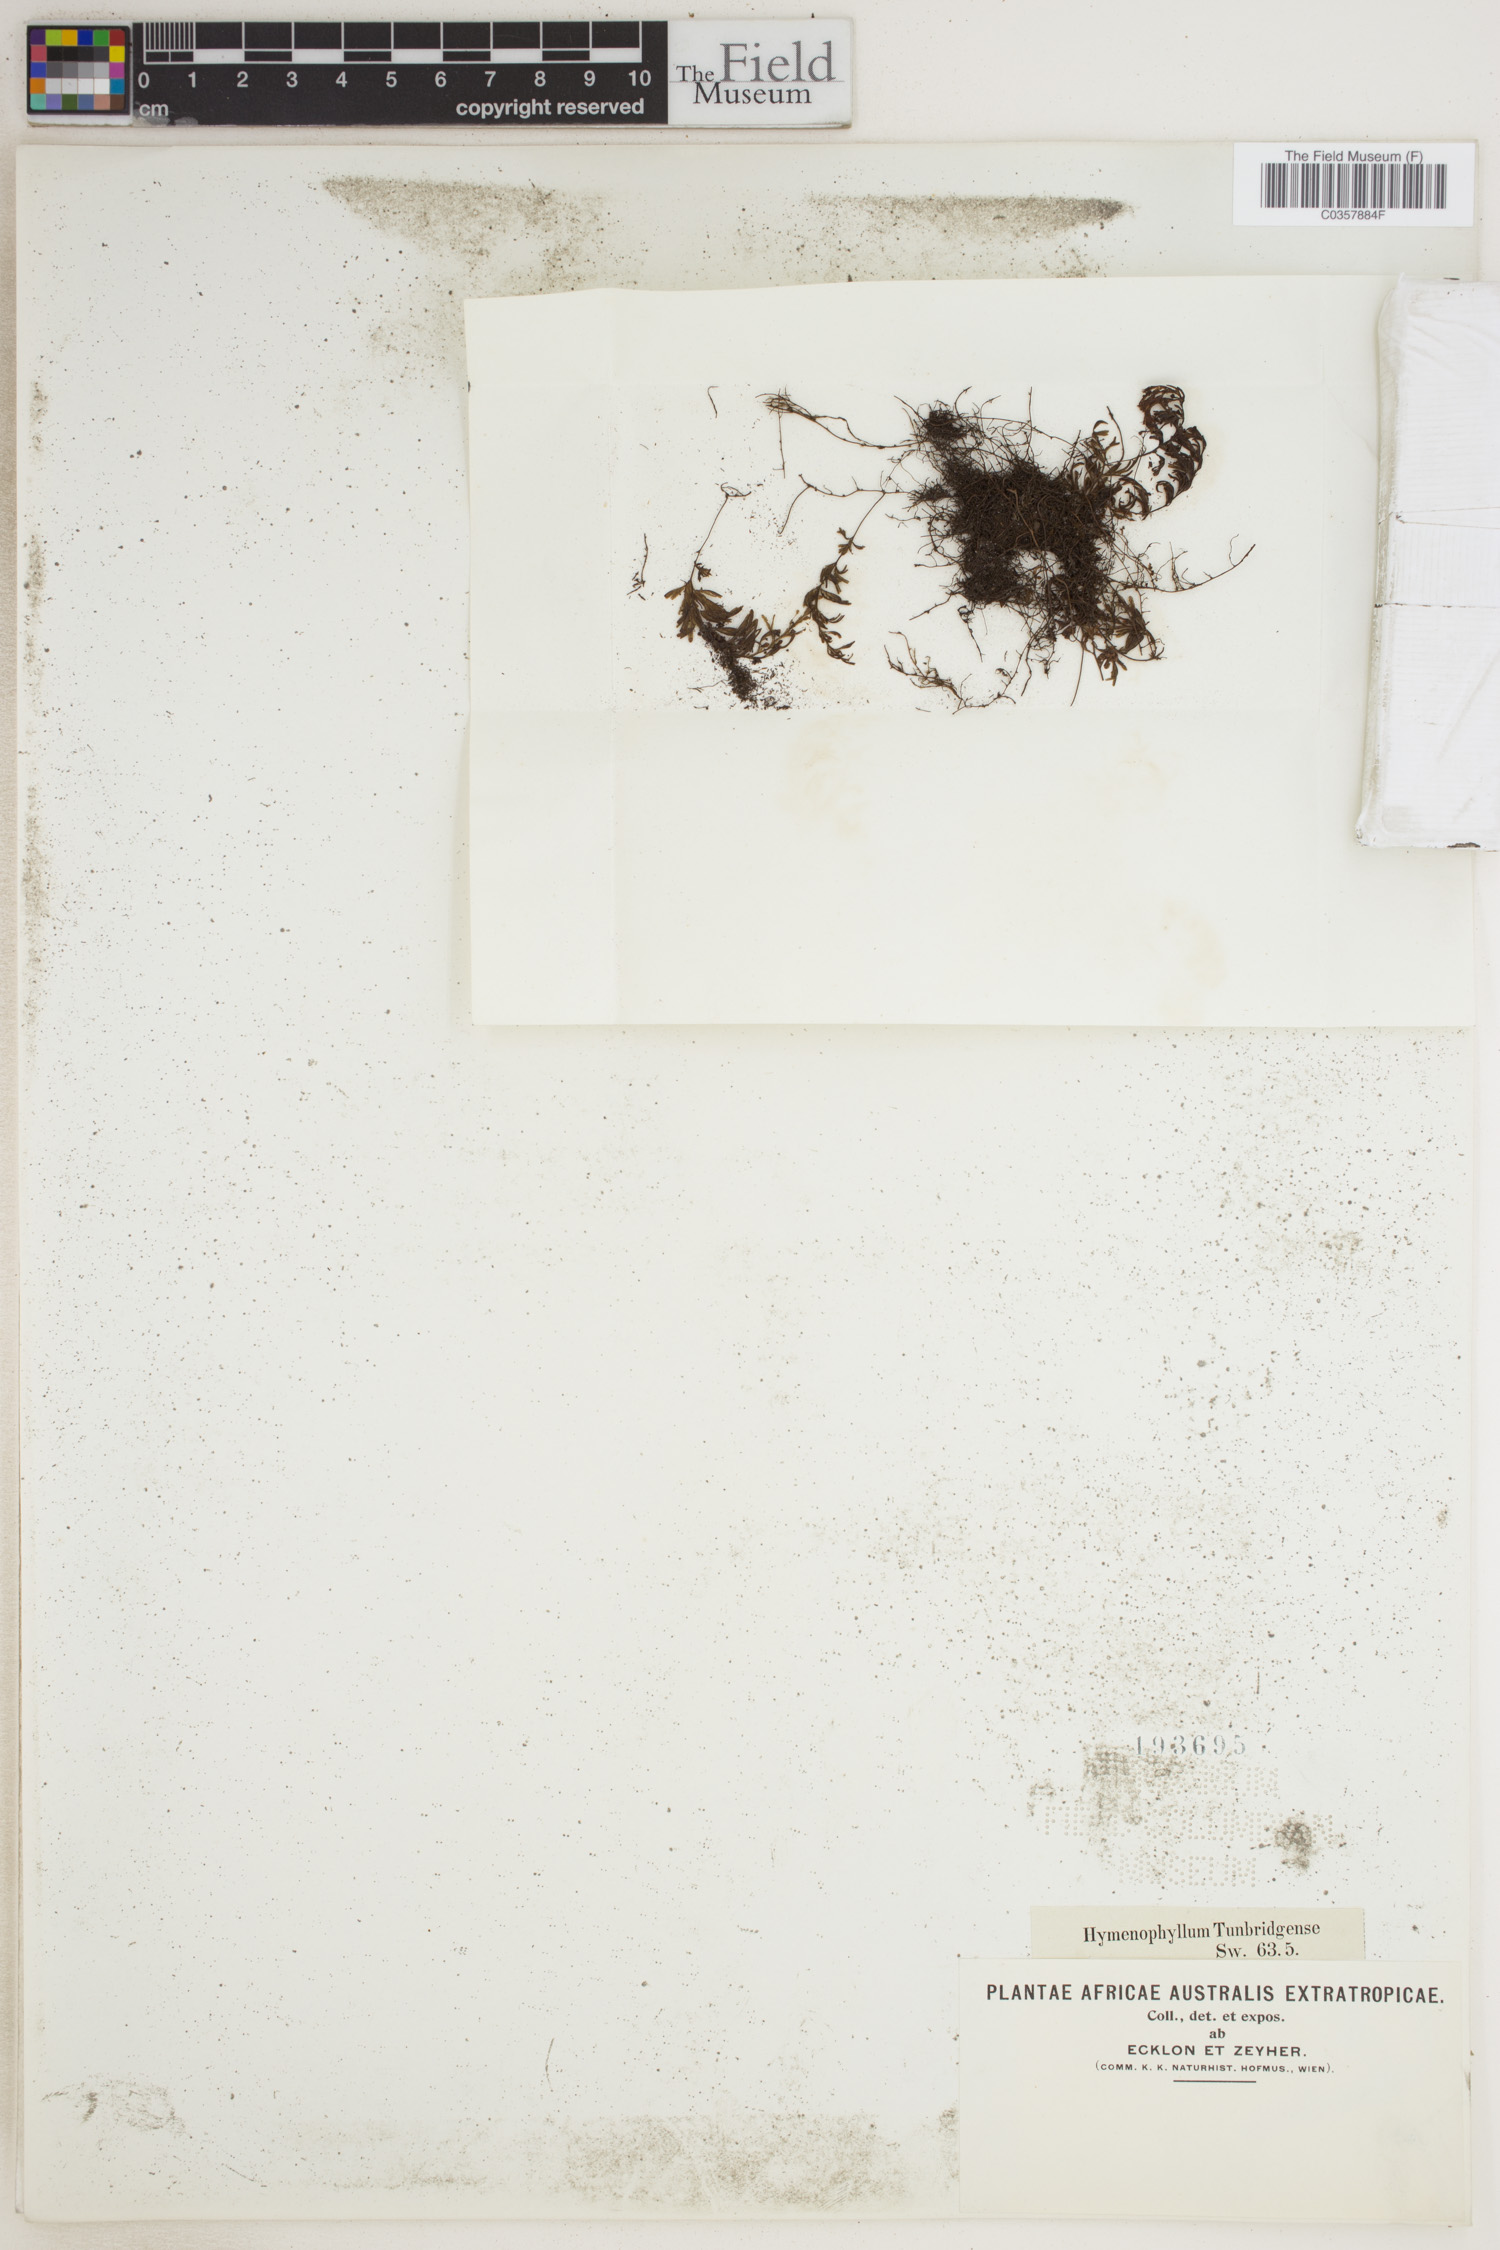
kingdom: Plantae
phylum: Tracheophyta
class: Polypodiopsida
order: Hymenophyllales
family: Hymenophyllaceae
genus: Hymenophyllum
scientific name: Hymenophyllum peltatum
